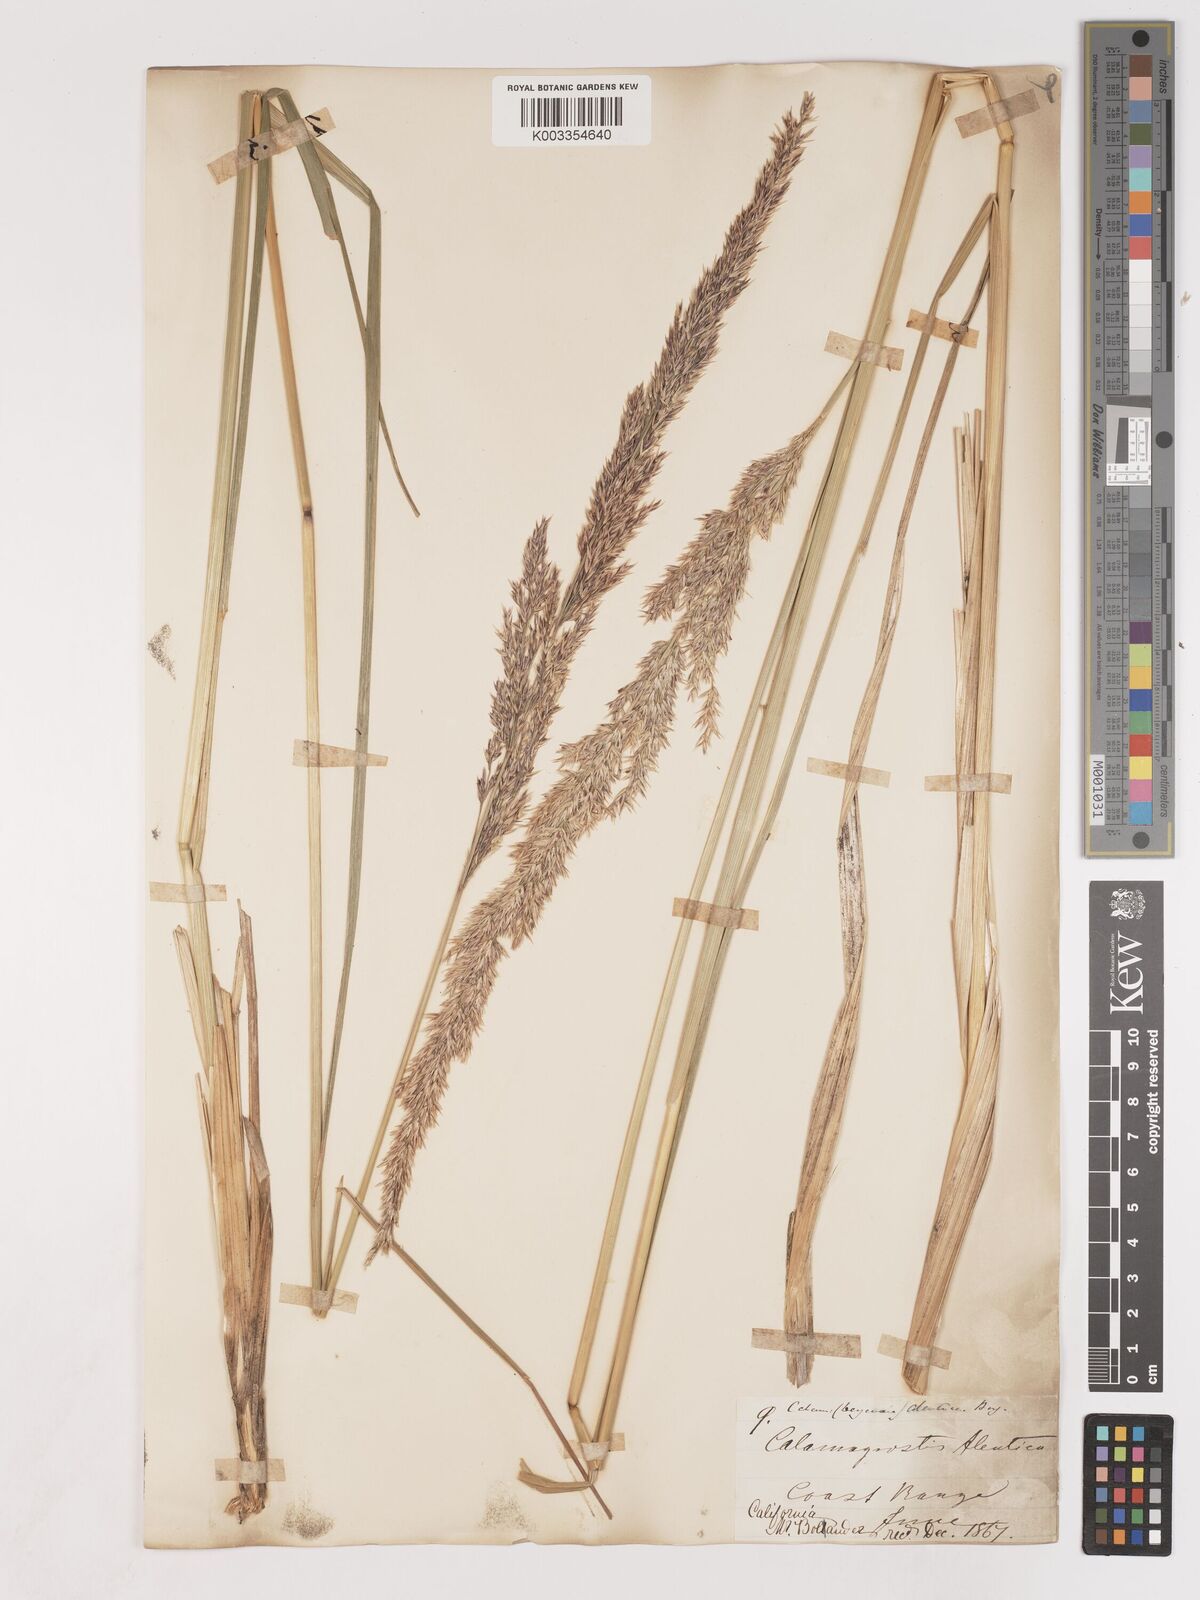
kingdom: Plantae
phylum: Tracheophyta
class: Liliopsida
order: Poales
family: Poaceae
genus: Calamagrostis
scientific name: Calamagrostis nutkaensis
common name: Pacific reed grass
